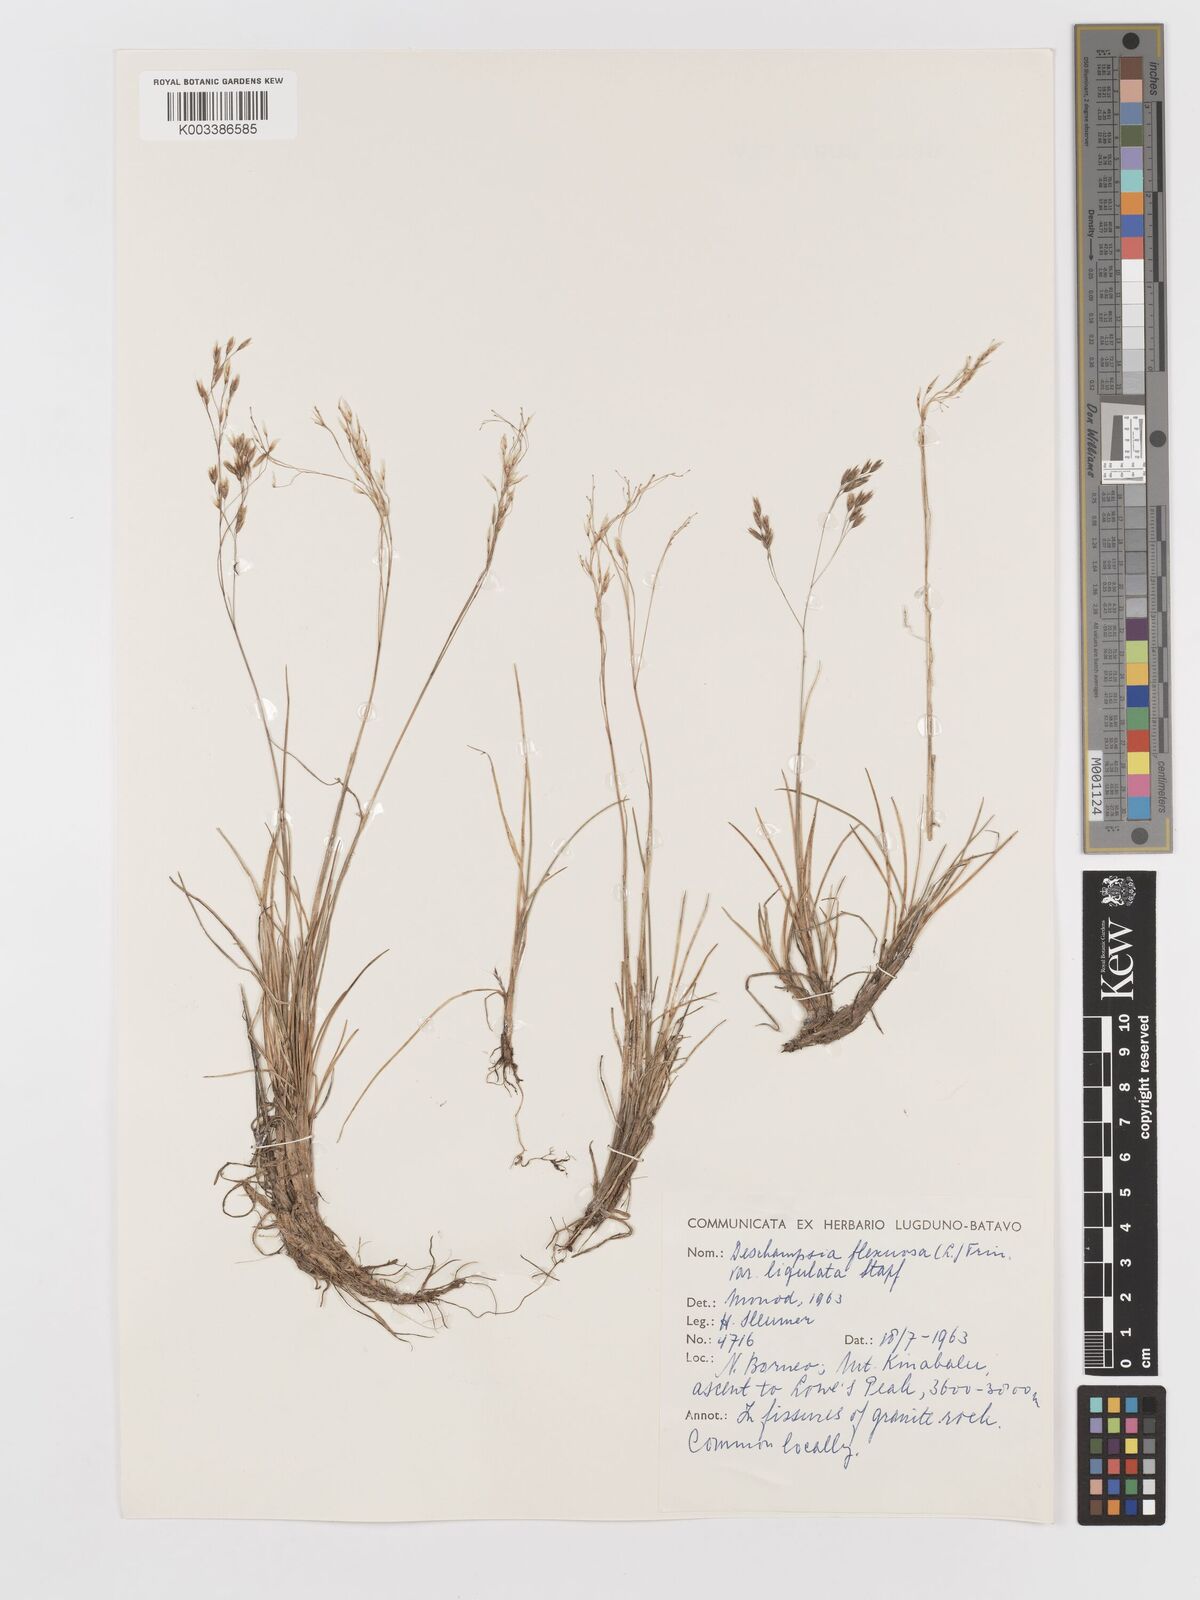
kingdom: Plantae
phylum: Tracheophyta
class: Liliopsida
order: Poales
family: Poaceae
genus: Avenella
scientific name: Avenella flexuosa
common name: Wavy hairgrass
